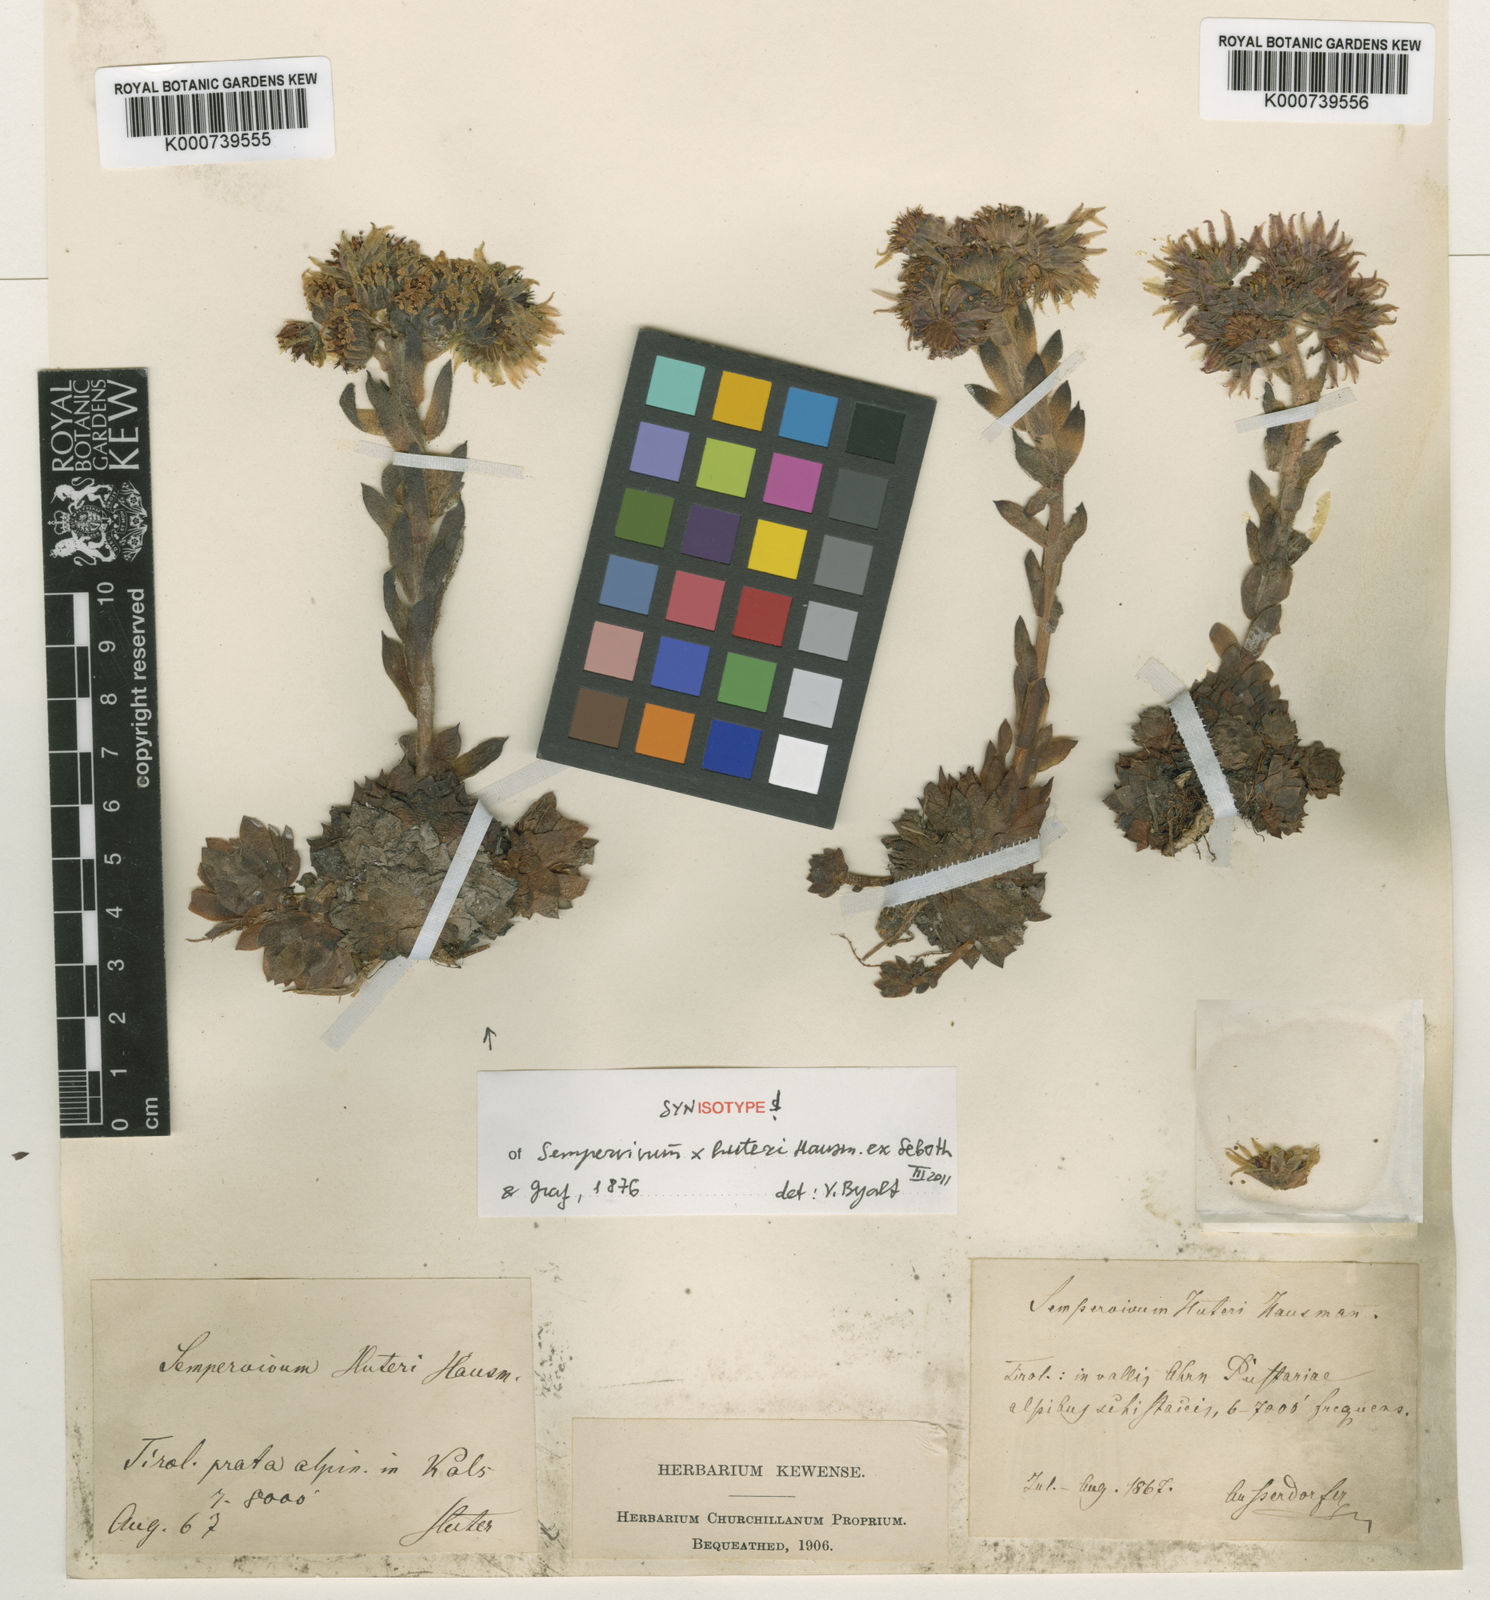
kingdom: Plantae
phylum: Tracheophyta
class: Magnoliopsida
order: Saxifragales
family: Crassulaceae
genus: Sempervivum
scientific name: Sempervivum rupicola
